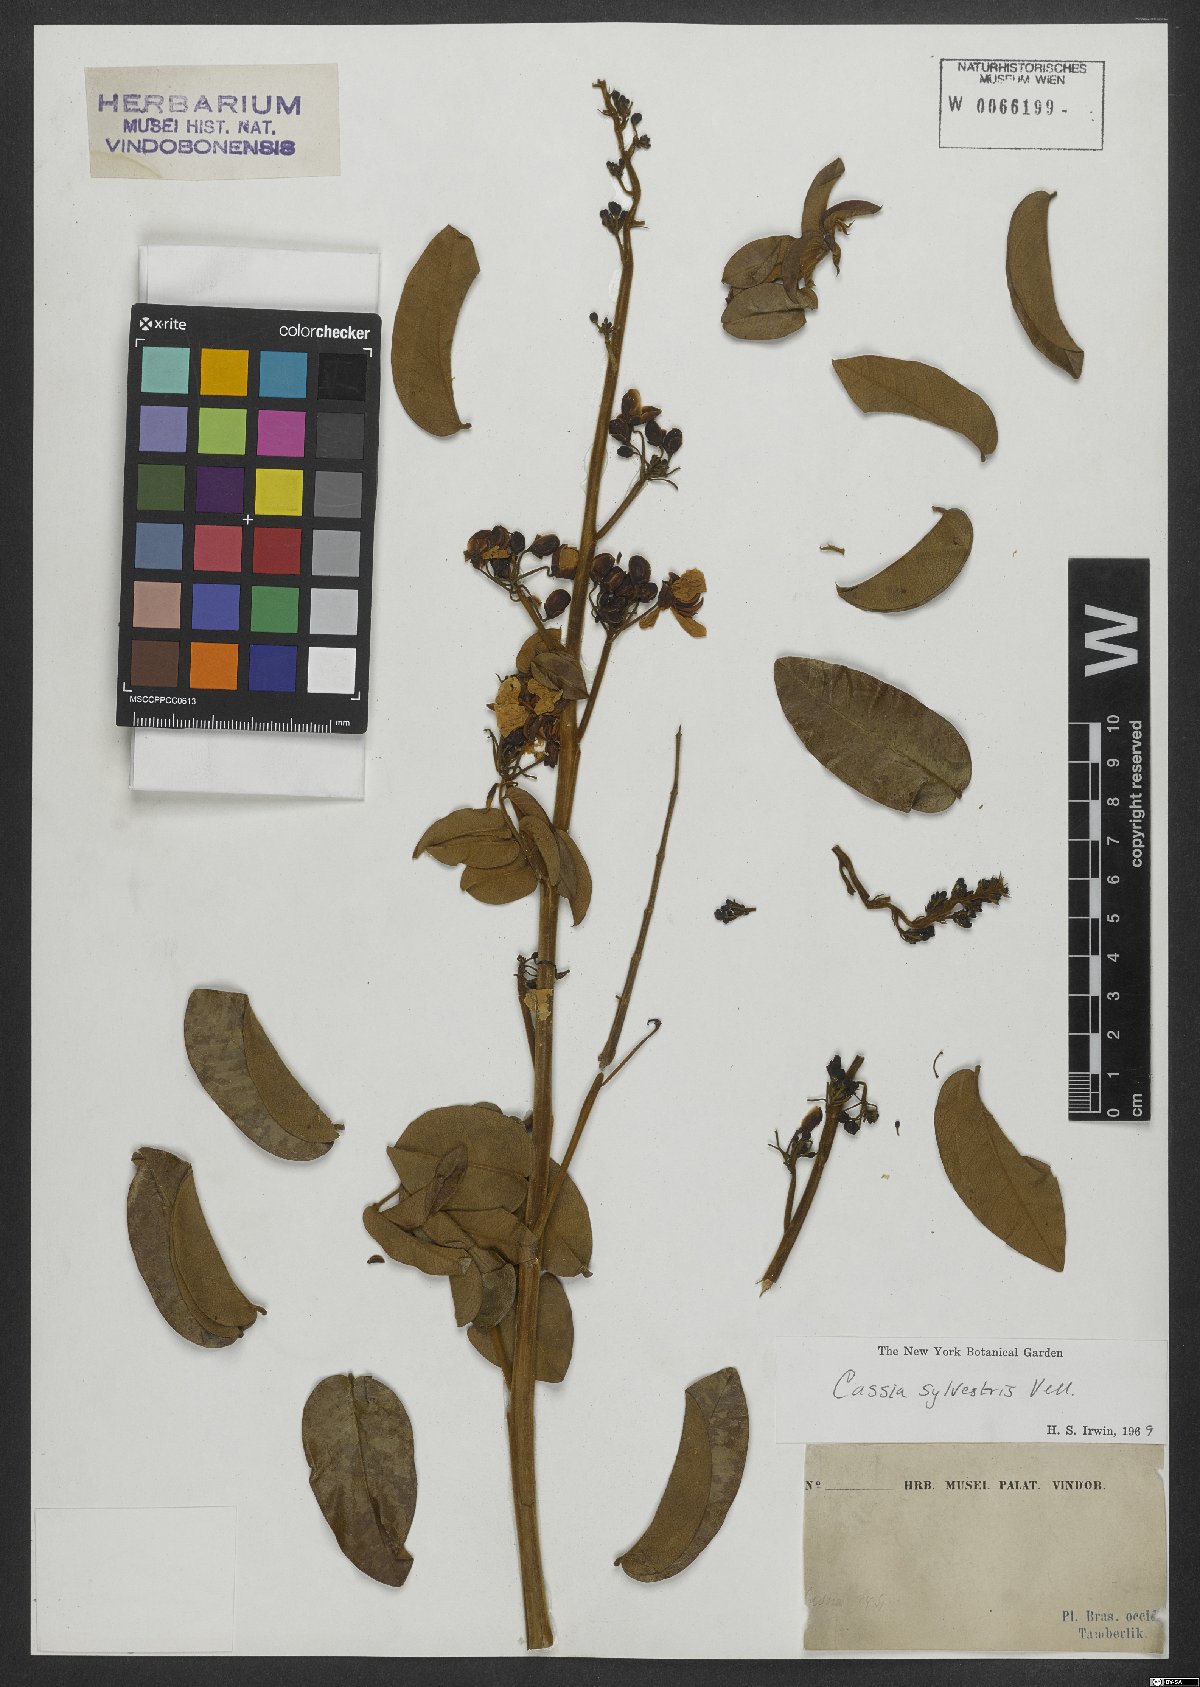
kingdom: Plantae
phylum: Tracheophyta
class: Magnoliopsida
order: Fabales
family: Fabaceae
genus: Senna
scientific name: Senna silvestris
